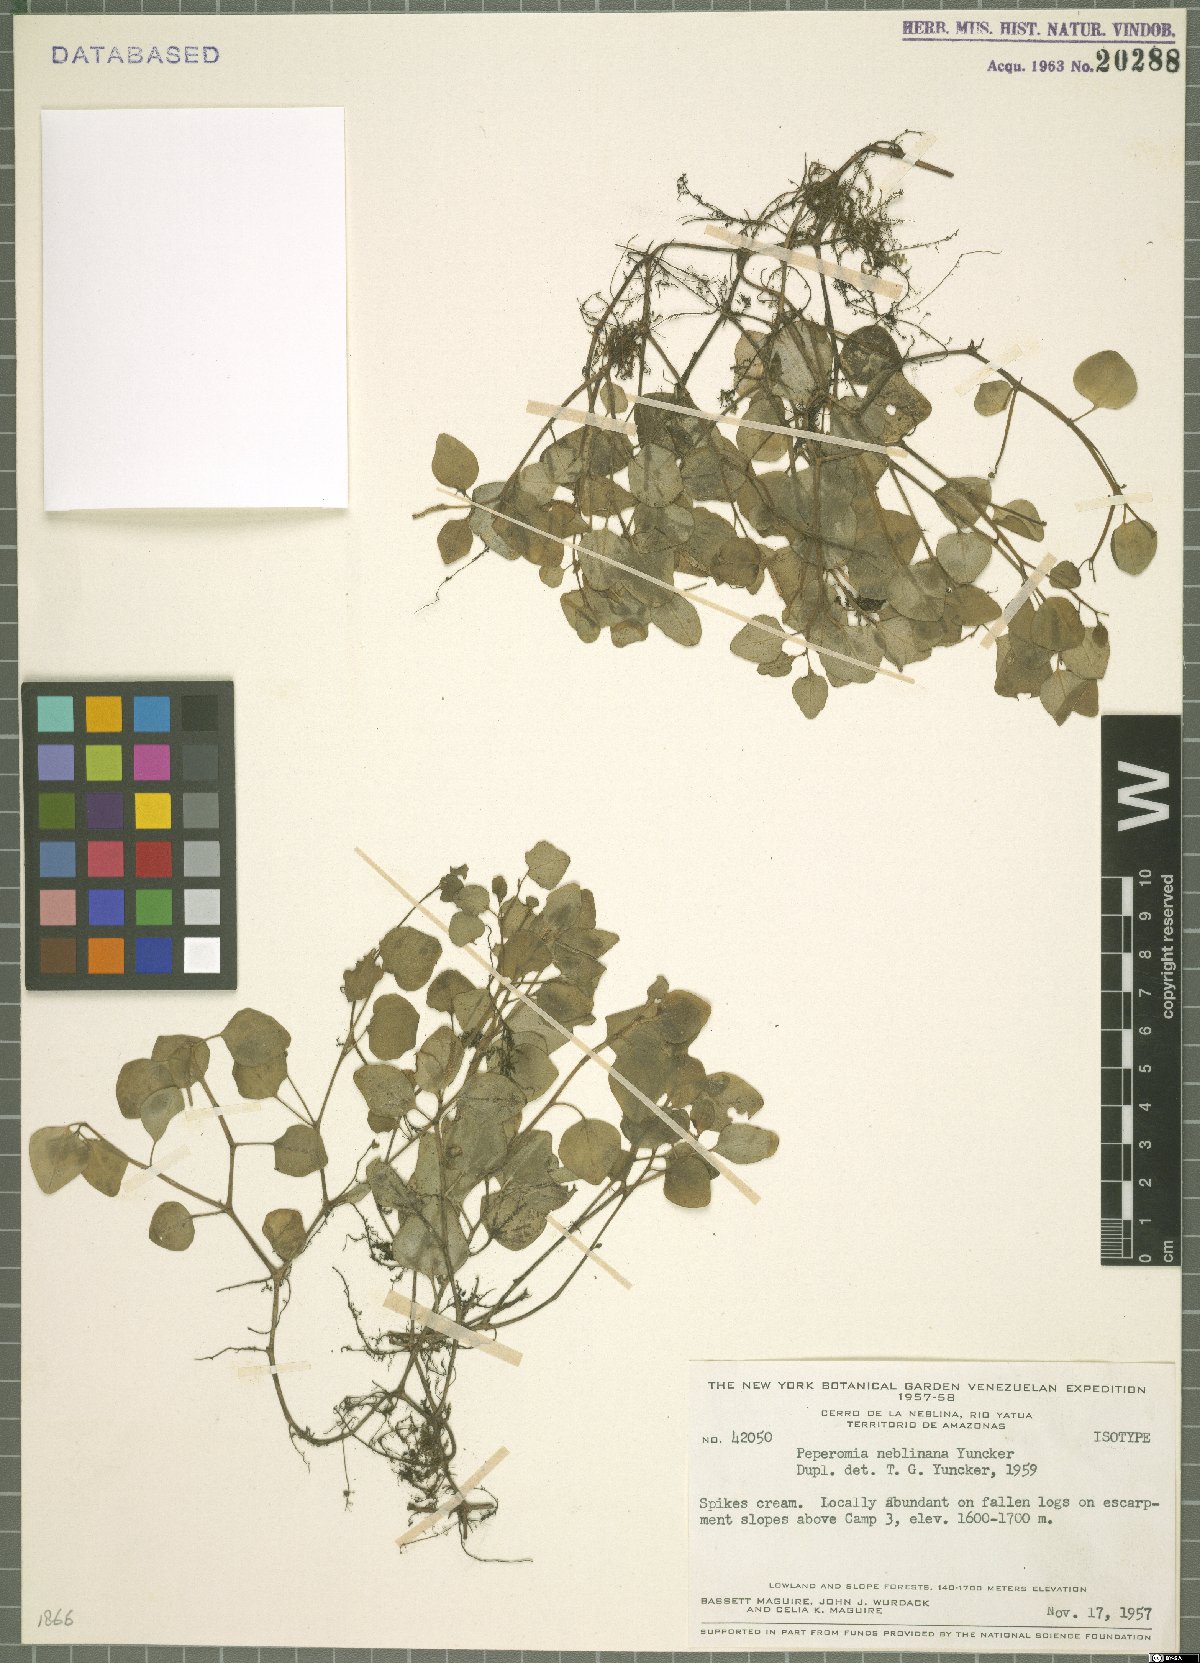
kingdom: Plantae
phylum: Tracheophyta
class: Magnoliopsida
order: Piperales
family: Piperaceae
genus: Peperomia
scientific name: Peperomia neblinana
